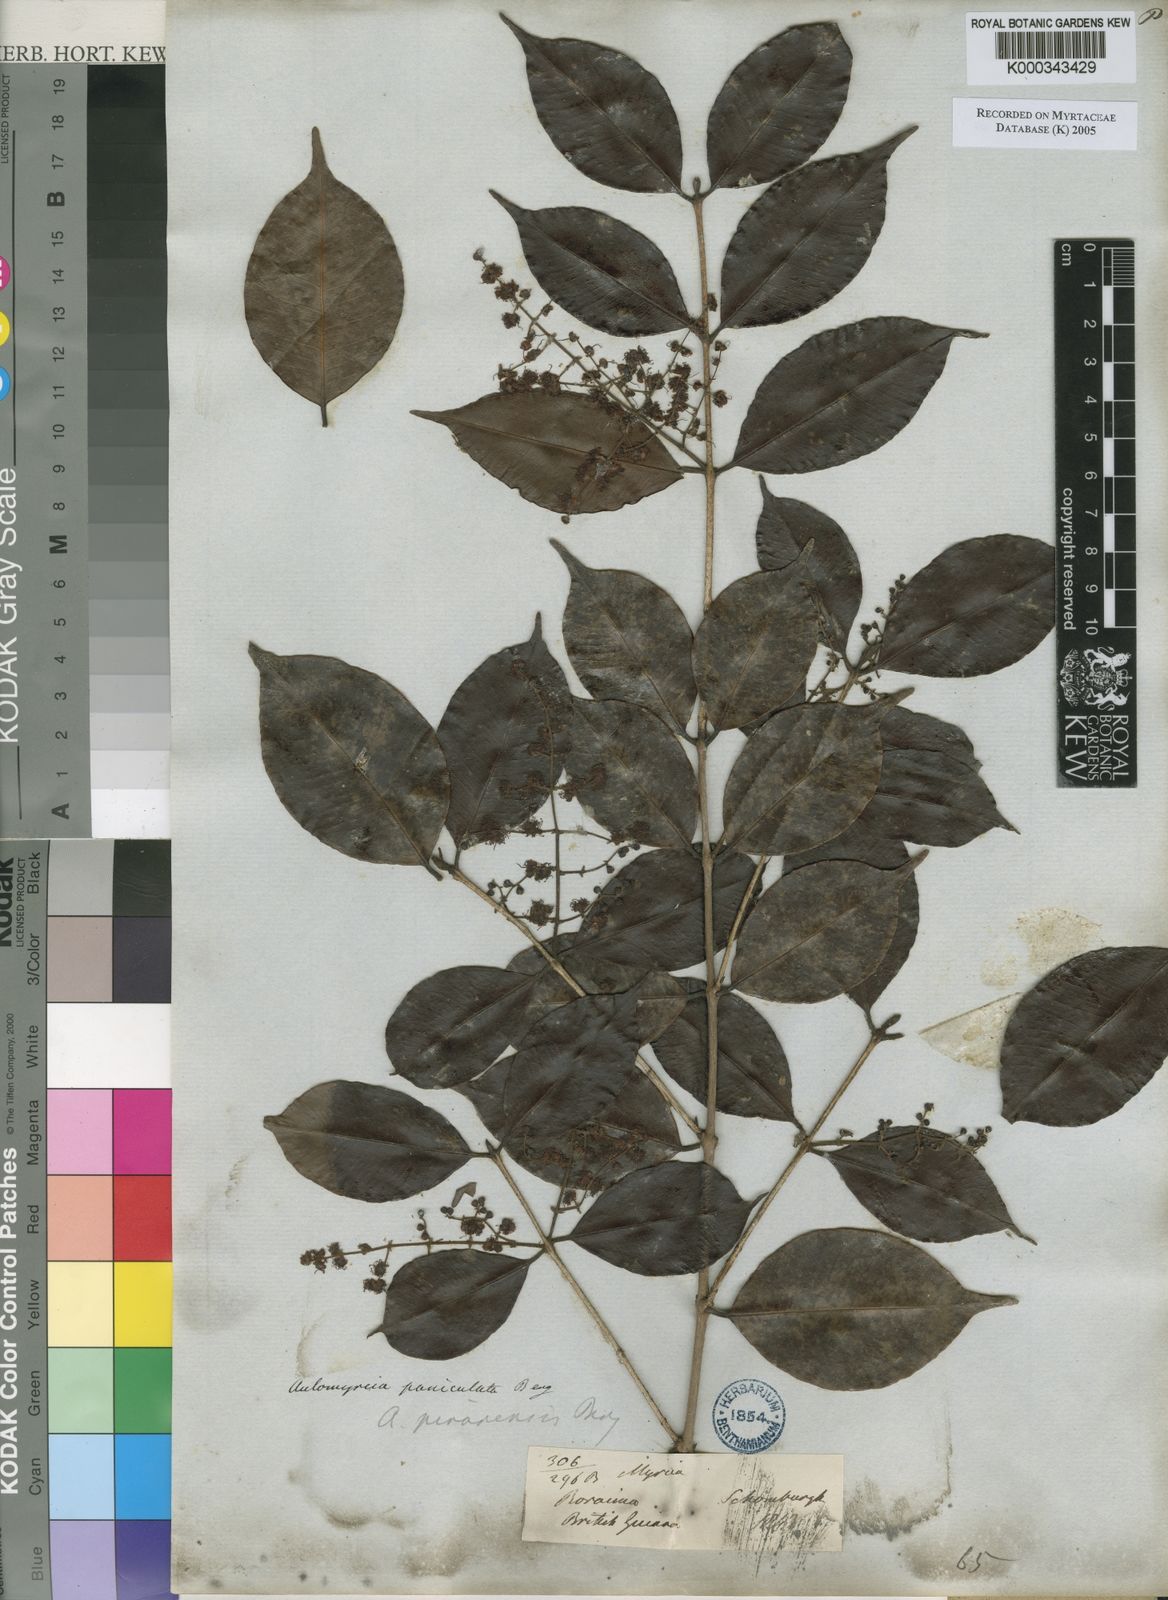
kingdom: Plantae
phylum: Tracheophyta
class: Magnoliopsida
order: Myrtales
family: Myrtaceae
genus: Myrcia
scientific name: Myrcia
